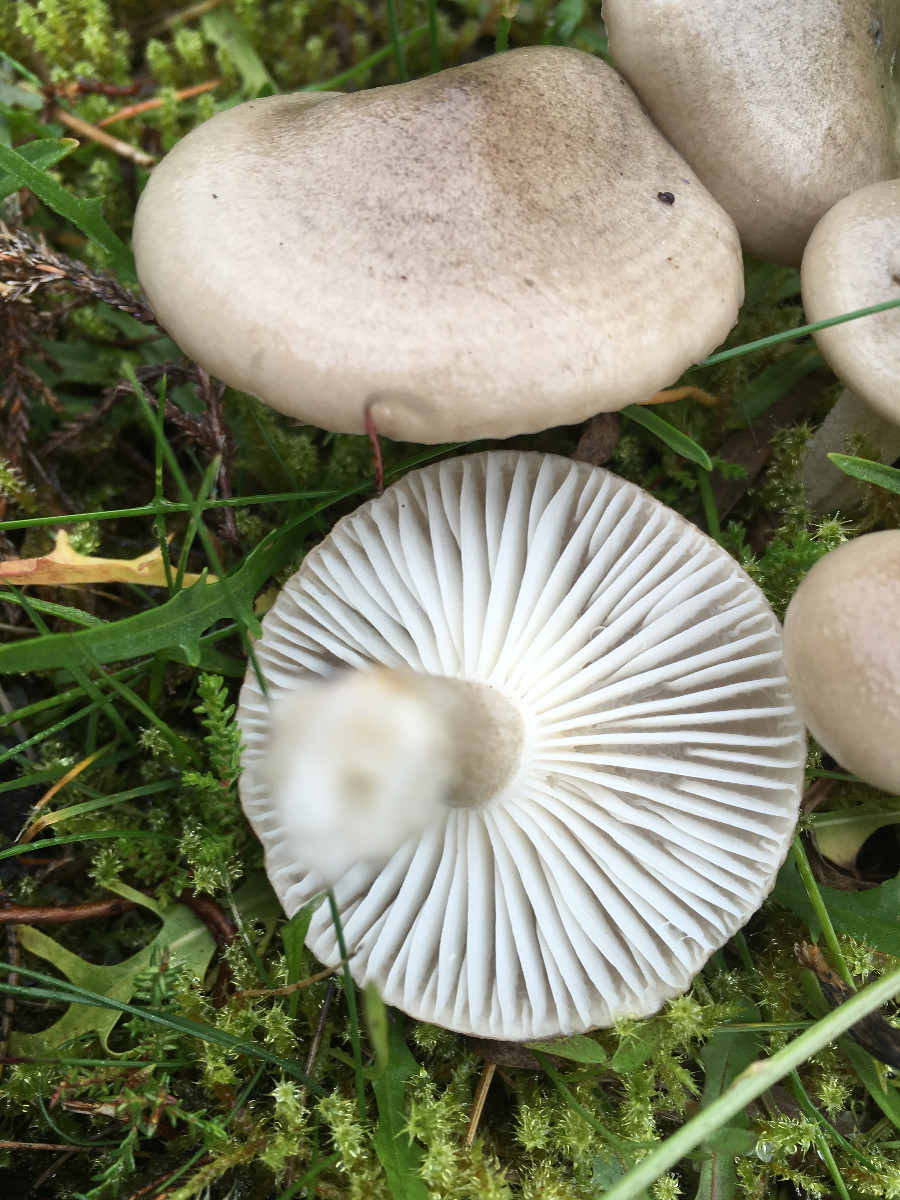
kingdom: Fungi
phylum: Basidiomycota
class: Agaricomycetes
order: Agaricales
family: Hygrophoraceae
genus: Hygrophorus
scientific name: Hygrophorus agathosmus
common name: vellugtende sneglehat
